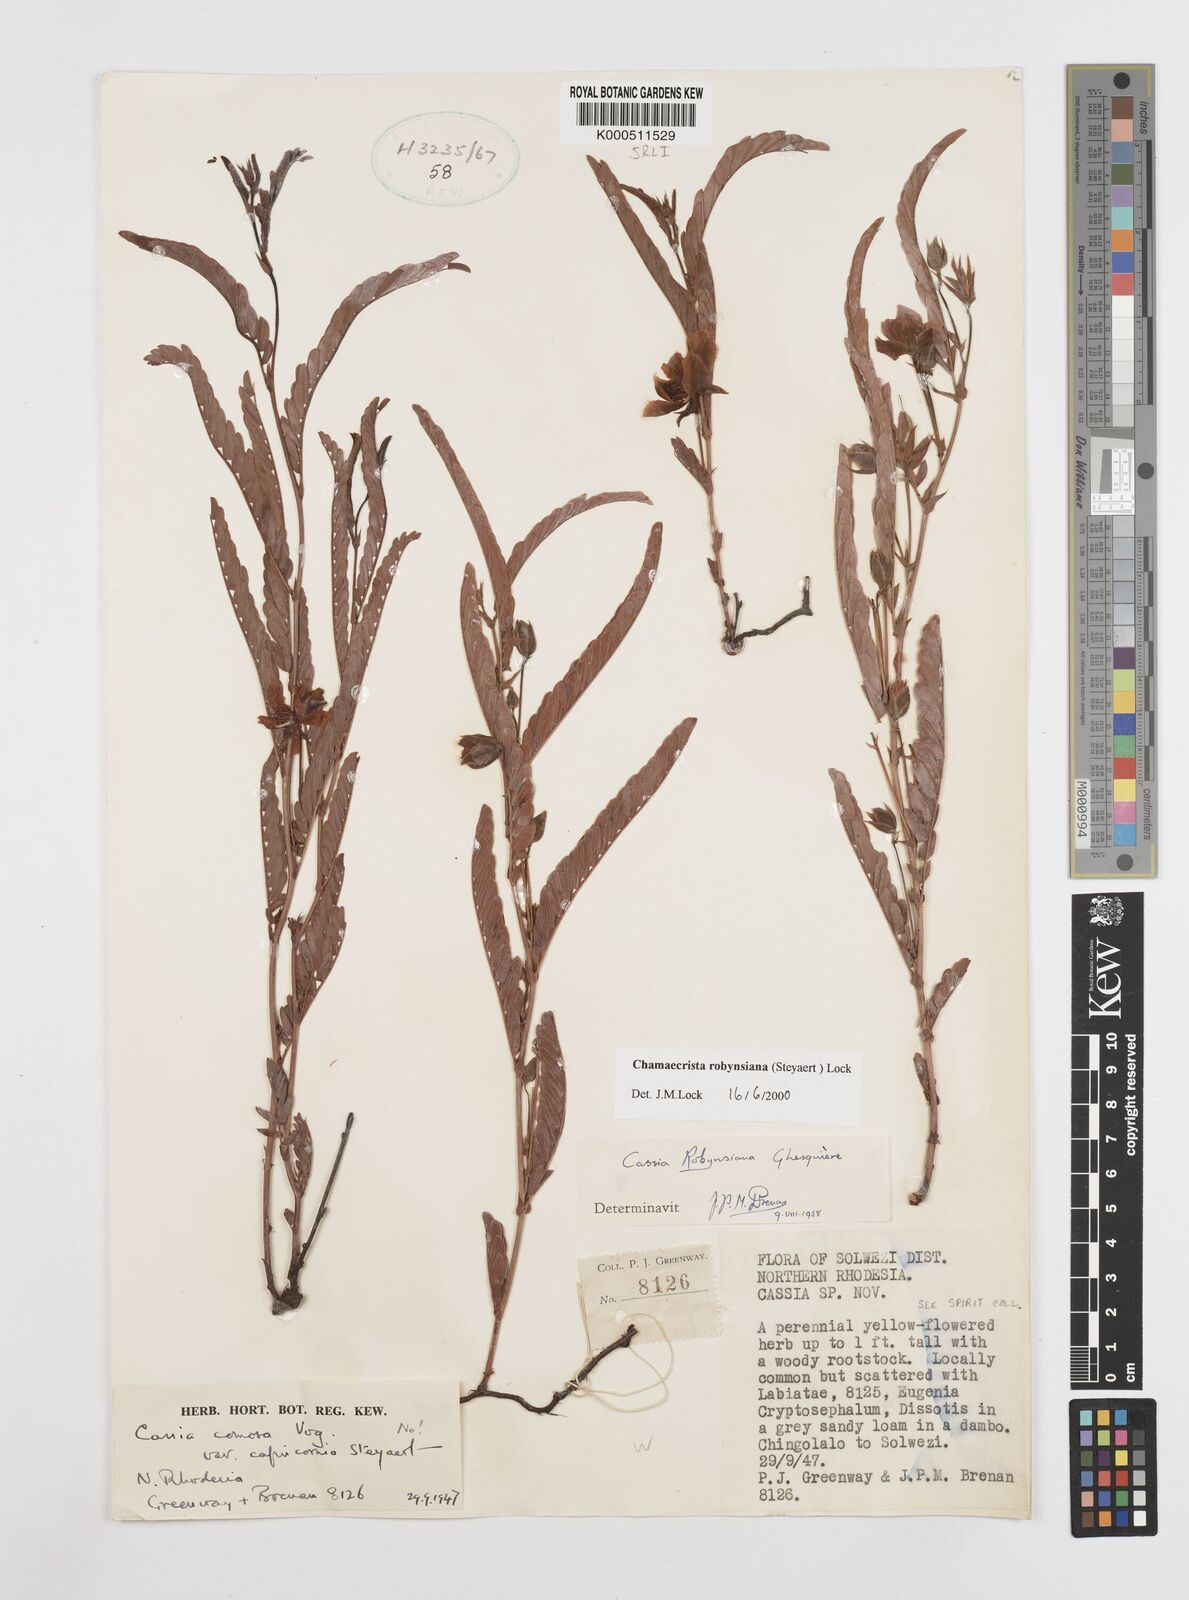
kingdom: Plantae
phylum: Tracheophyta
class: Magnoliopsida
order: Fabales
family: Fabaceae
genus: Chamaecrista
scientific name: Chamaecrista robynsiana
